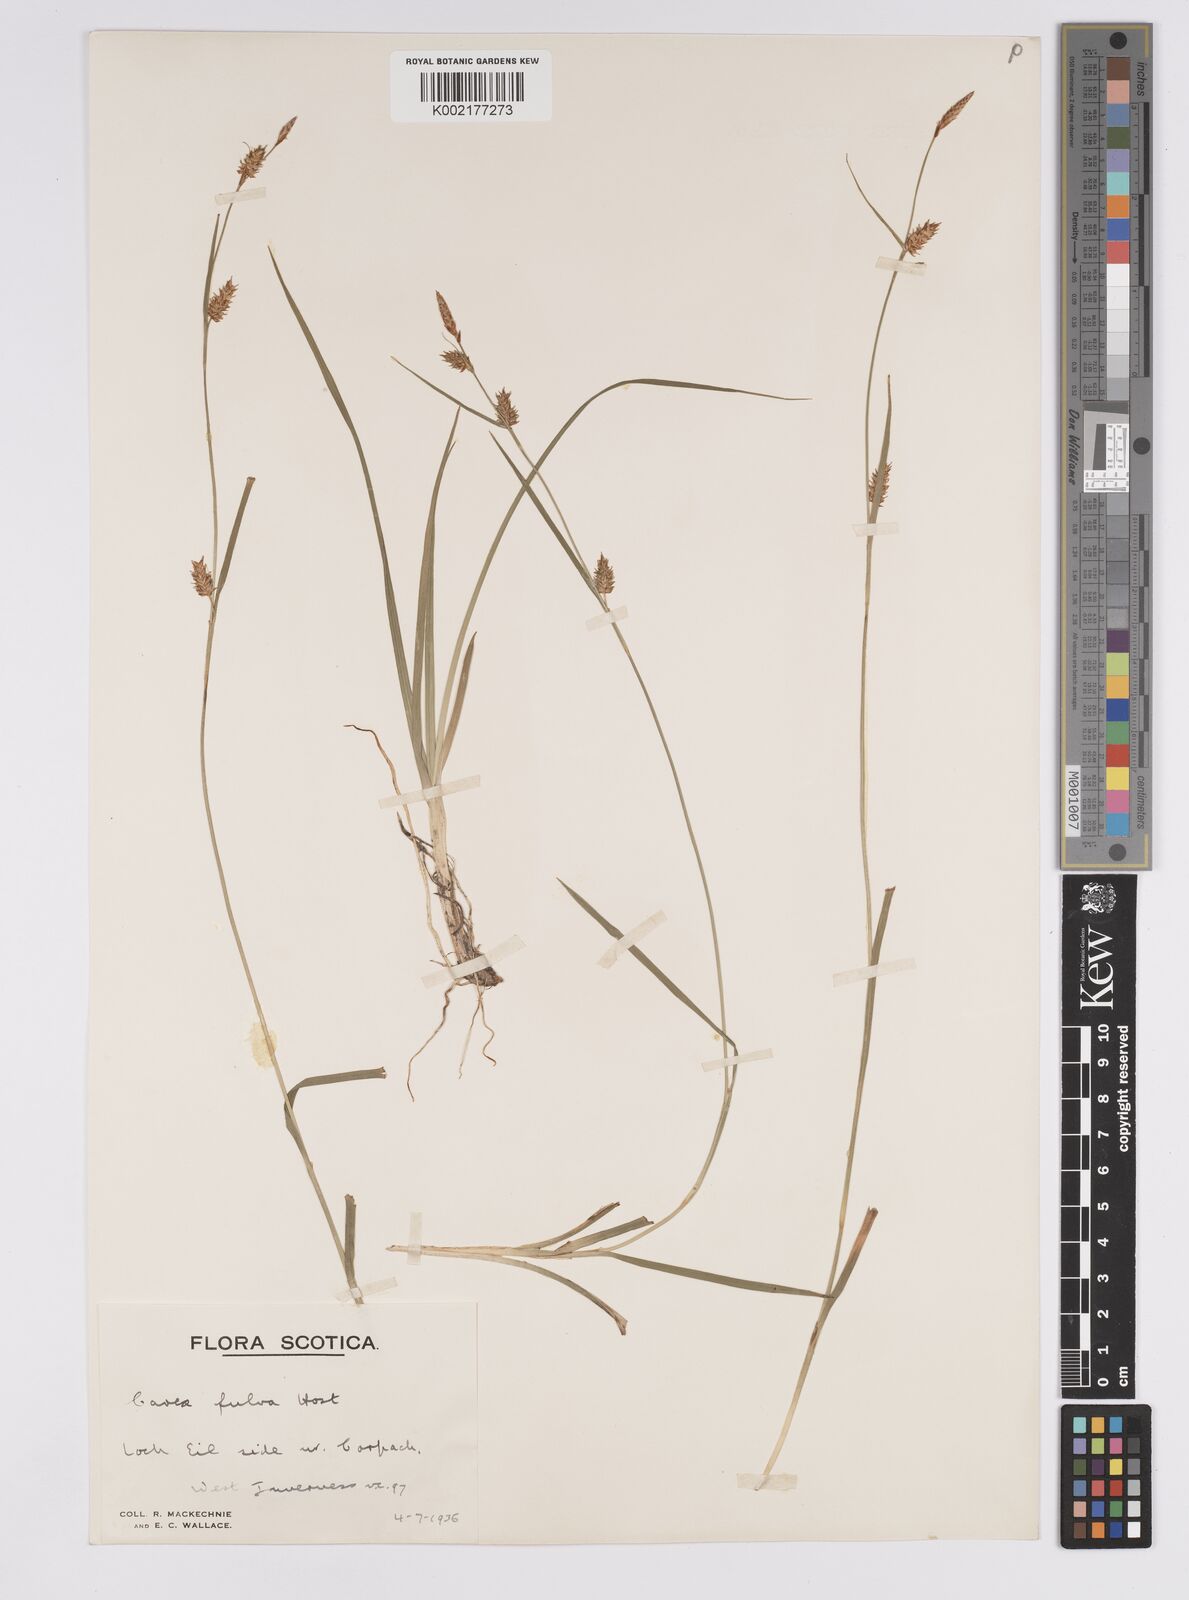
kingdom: Plantae
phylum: Tracheophyta
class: Liliopsida
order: Poales
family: Cyperaceae
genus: Carex
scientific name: Carex hostiana
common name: Tawny sedge
